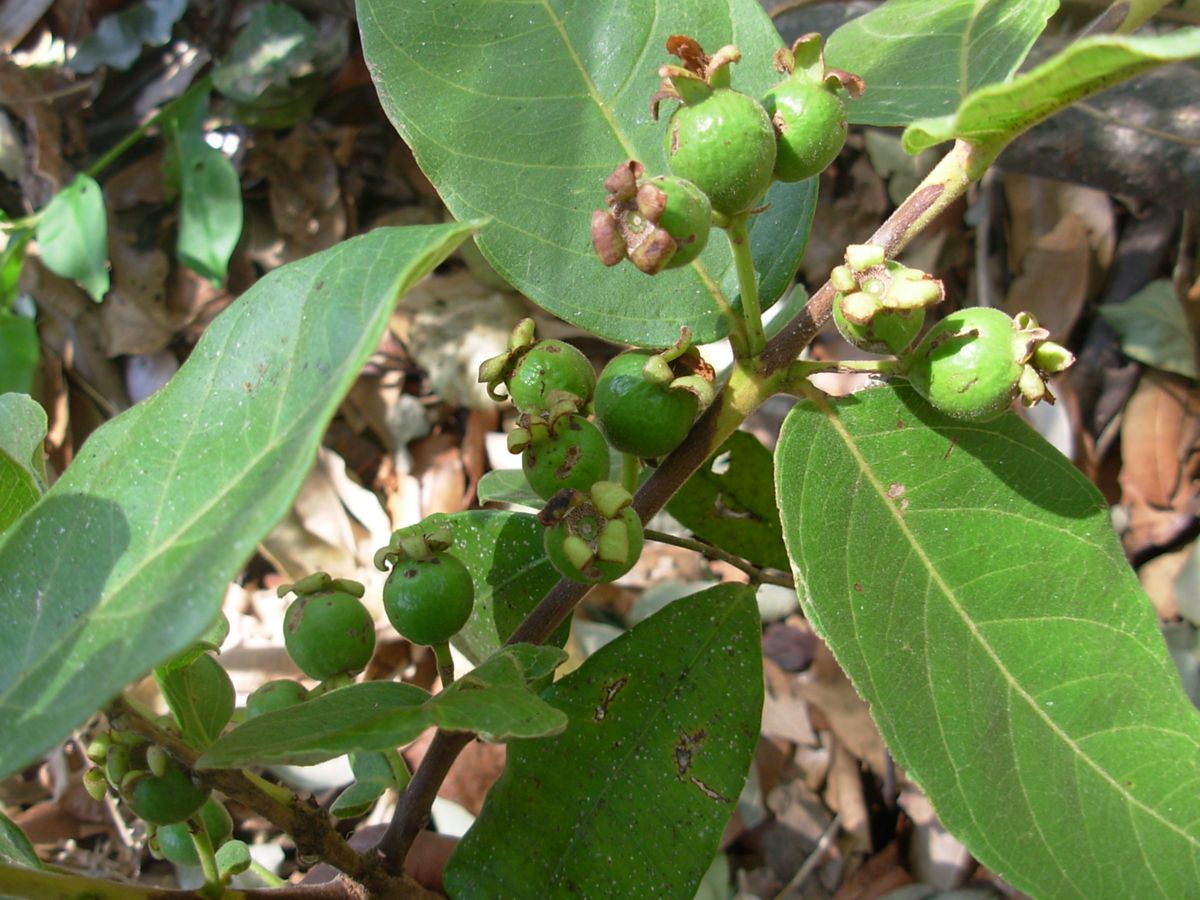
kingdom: Plantae
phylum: Tracheophyta
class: Magnoliopsida
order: Myrtales
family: Myrtaceae
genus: Psidium
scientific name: Psidium guineense
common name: Brazilian guava
